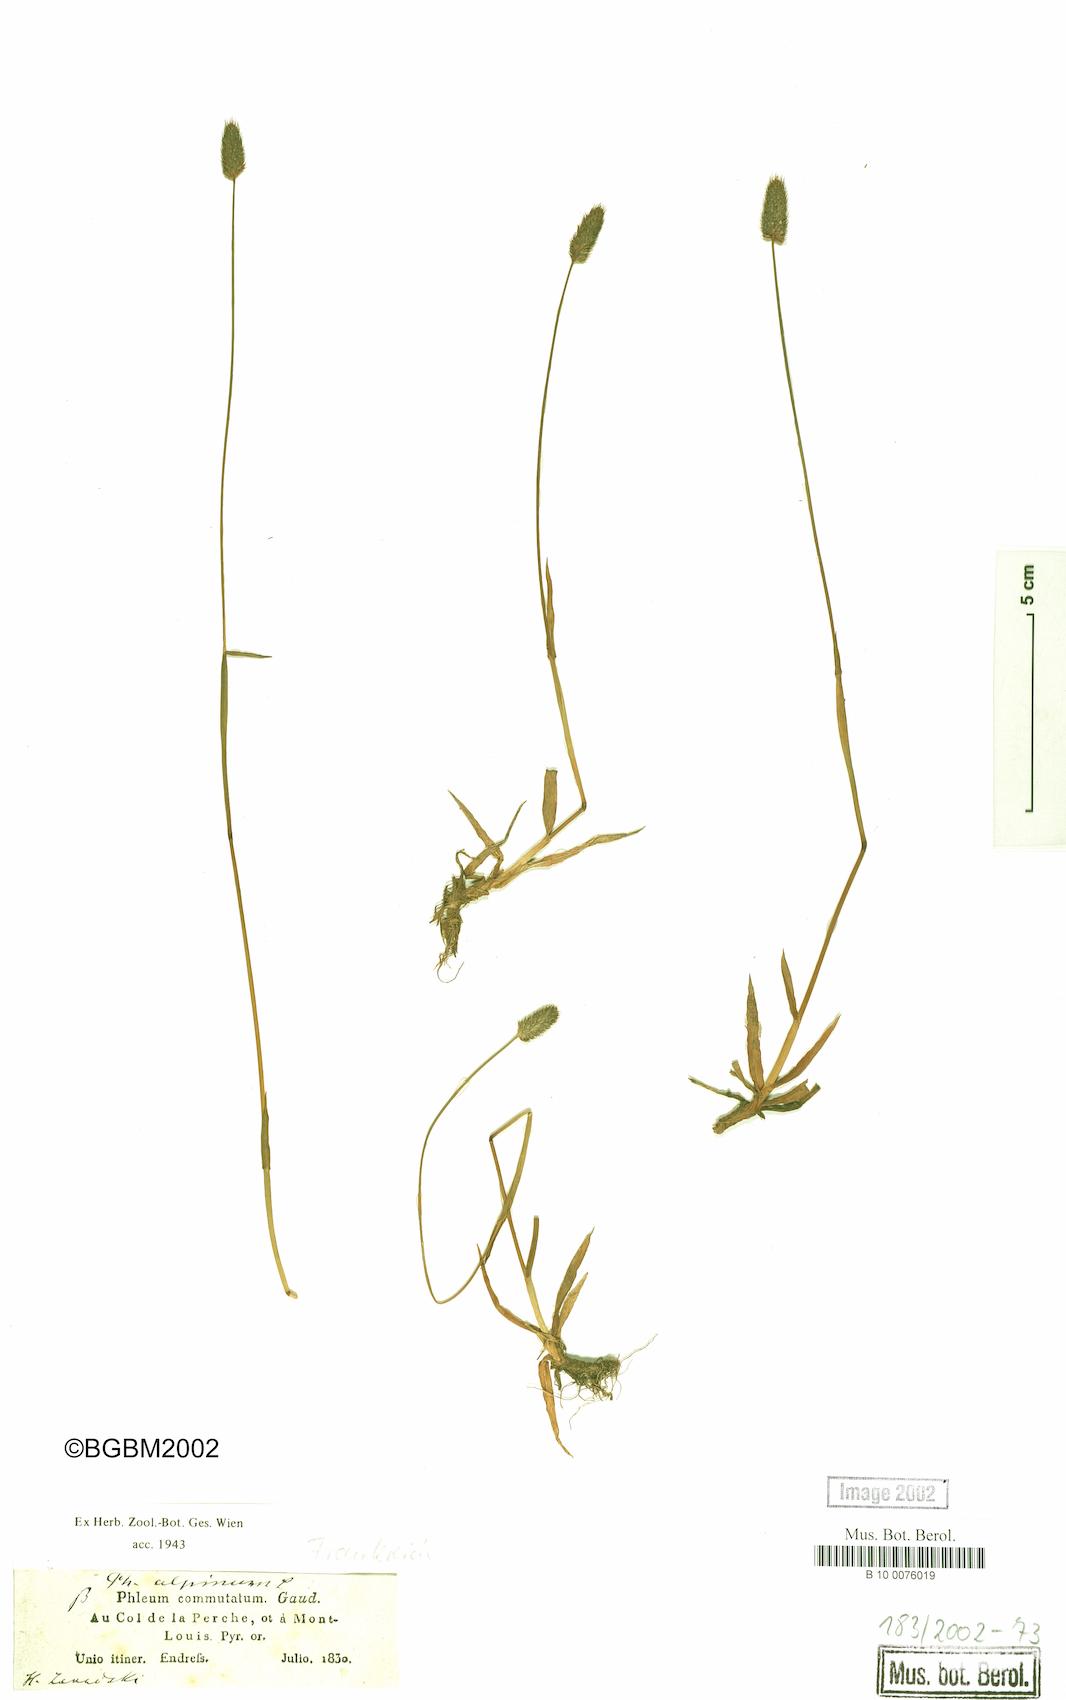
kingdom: Plantae
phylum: Tracheophyta
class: Liliopsida
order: Poales
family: Poaceae
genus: Phleum
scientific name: Phleum alpinum
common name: Alpine cat's-tail
